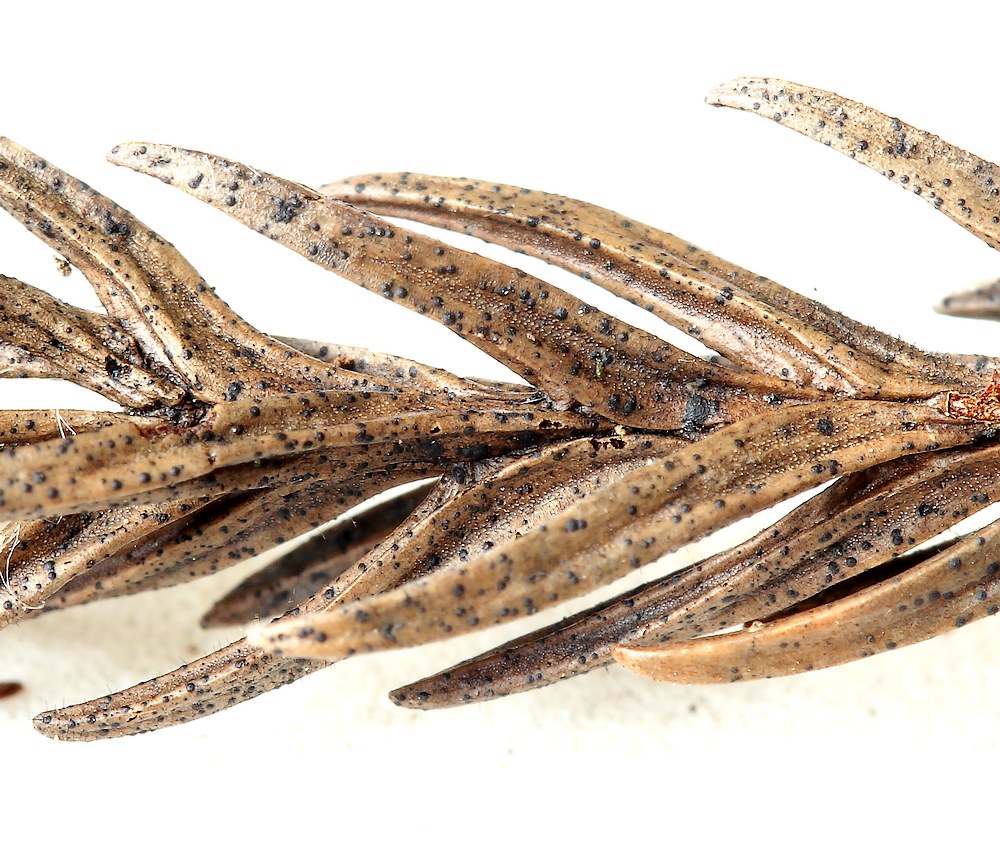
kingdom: Fungi
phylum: Ascomycota
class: Dothideomycetes
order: Microthyriales
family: Micropeltidaceae
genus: Stomiopeltis
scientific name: Stomiopeltis cupressicola
